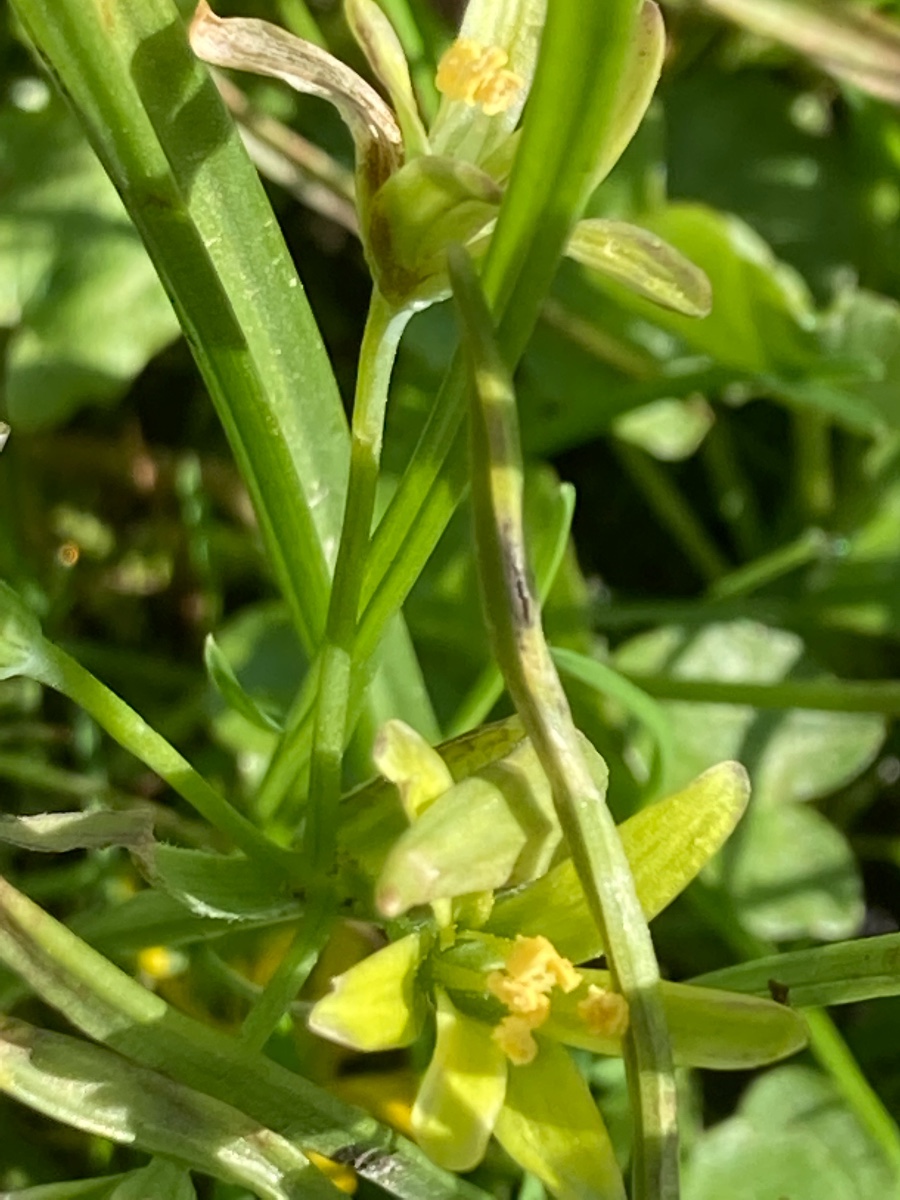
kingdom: Fungi
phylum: Basidiomycota
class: Ustilaginomycetes
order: Urocystidales
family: Urocystidaceae
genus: Vankya
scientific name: Vankya ornithogali
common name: Yellow star-of-bethlehem smut
